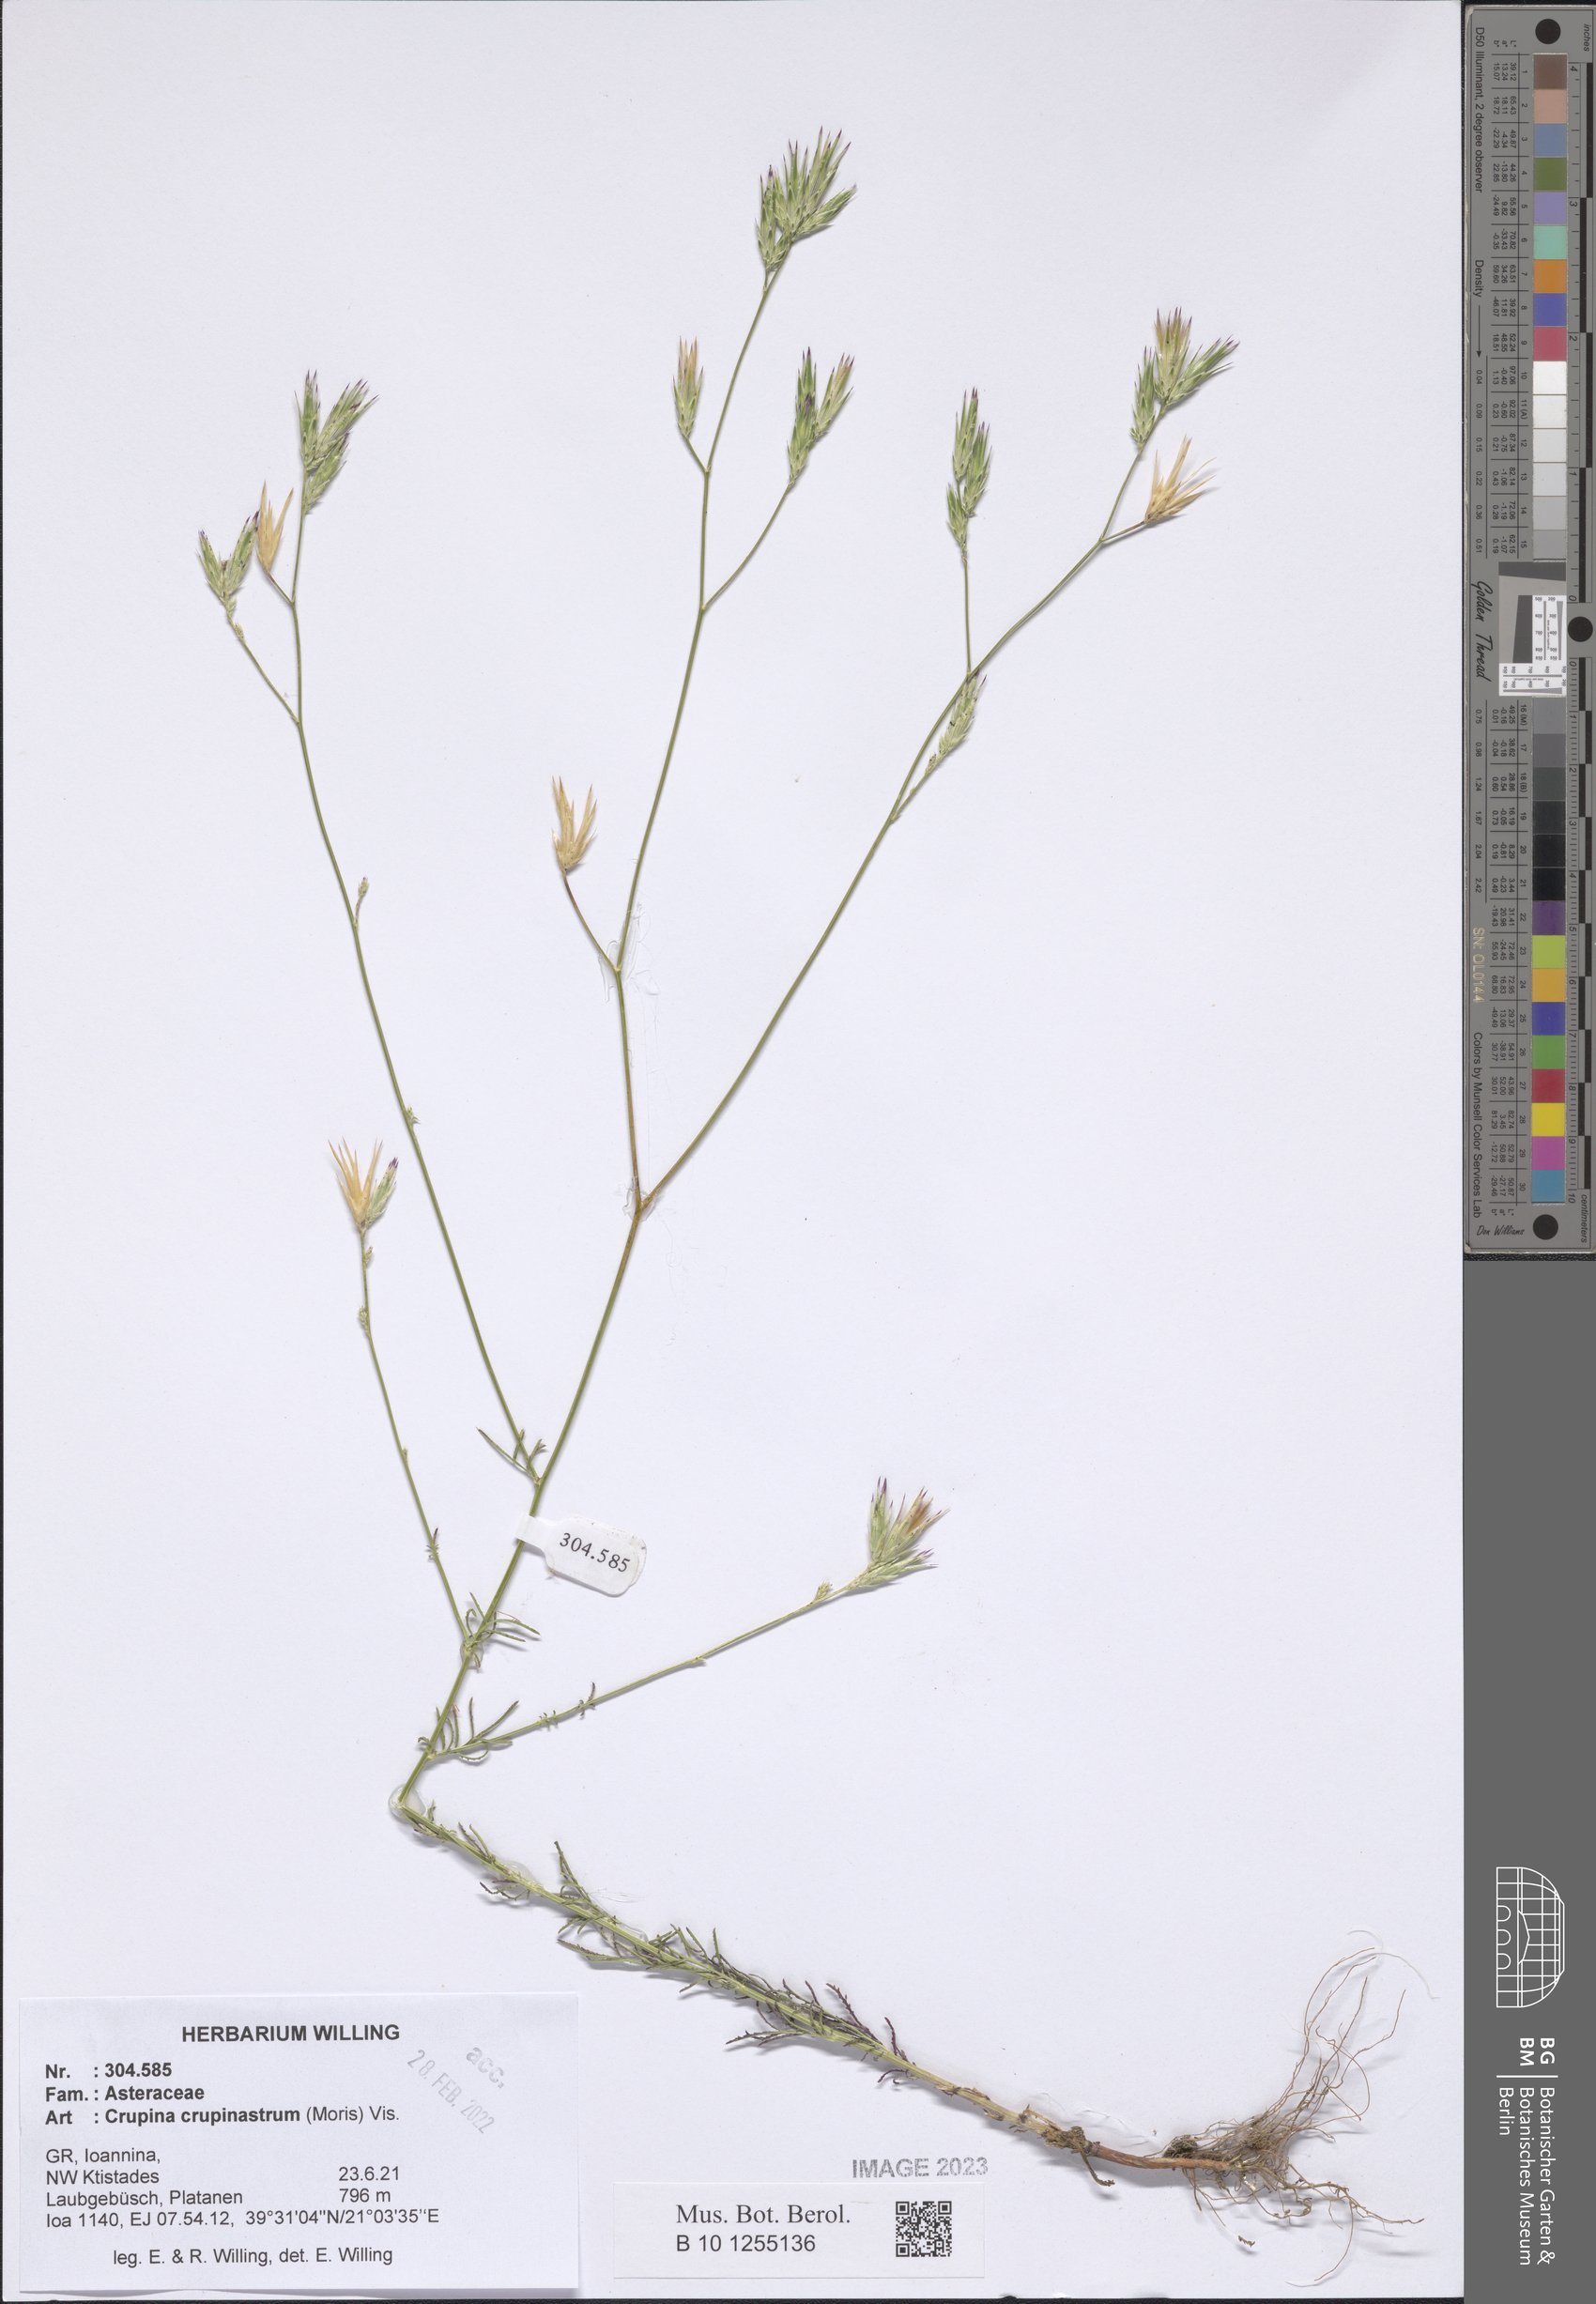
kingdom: Plantae
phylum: Tracheophyta
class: Magnoliopsida
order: Asterales
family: Asteraceae
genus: Crupina
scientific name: Crupina crupinastrum
